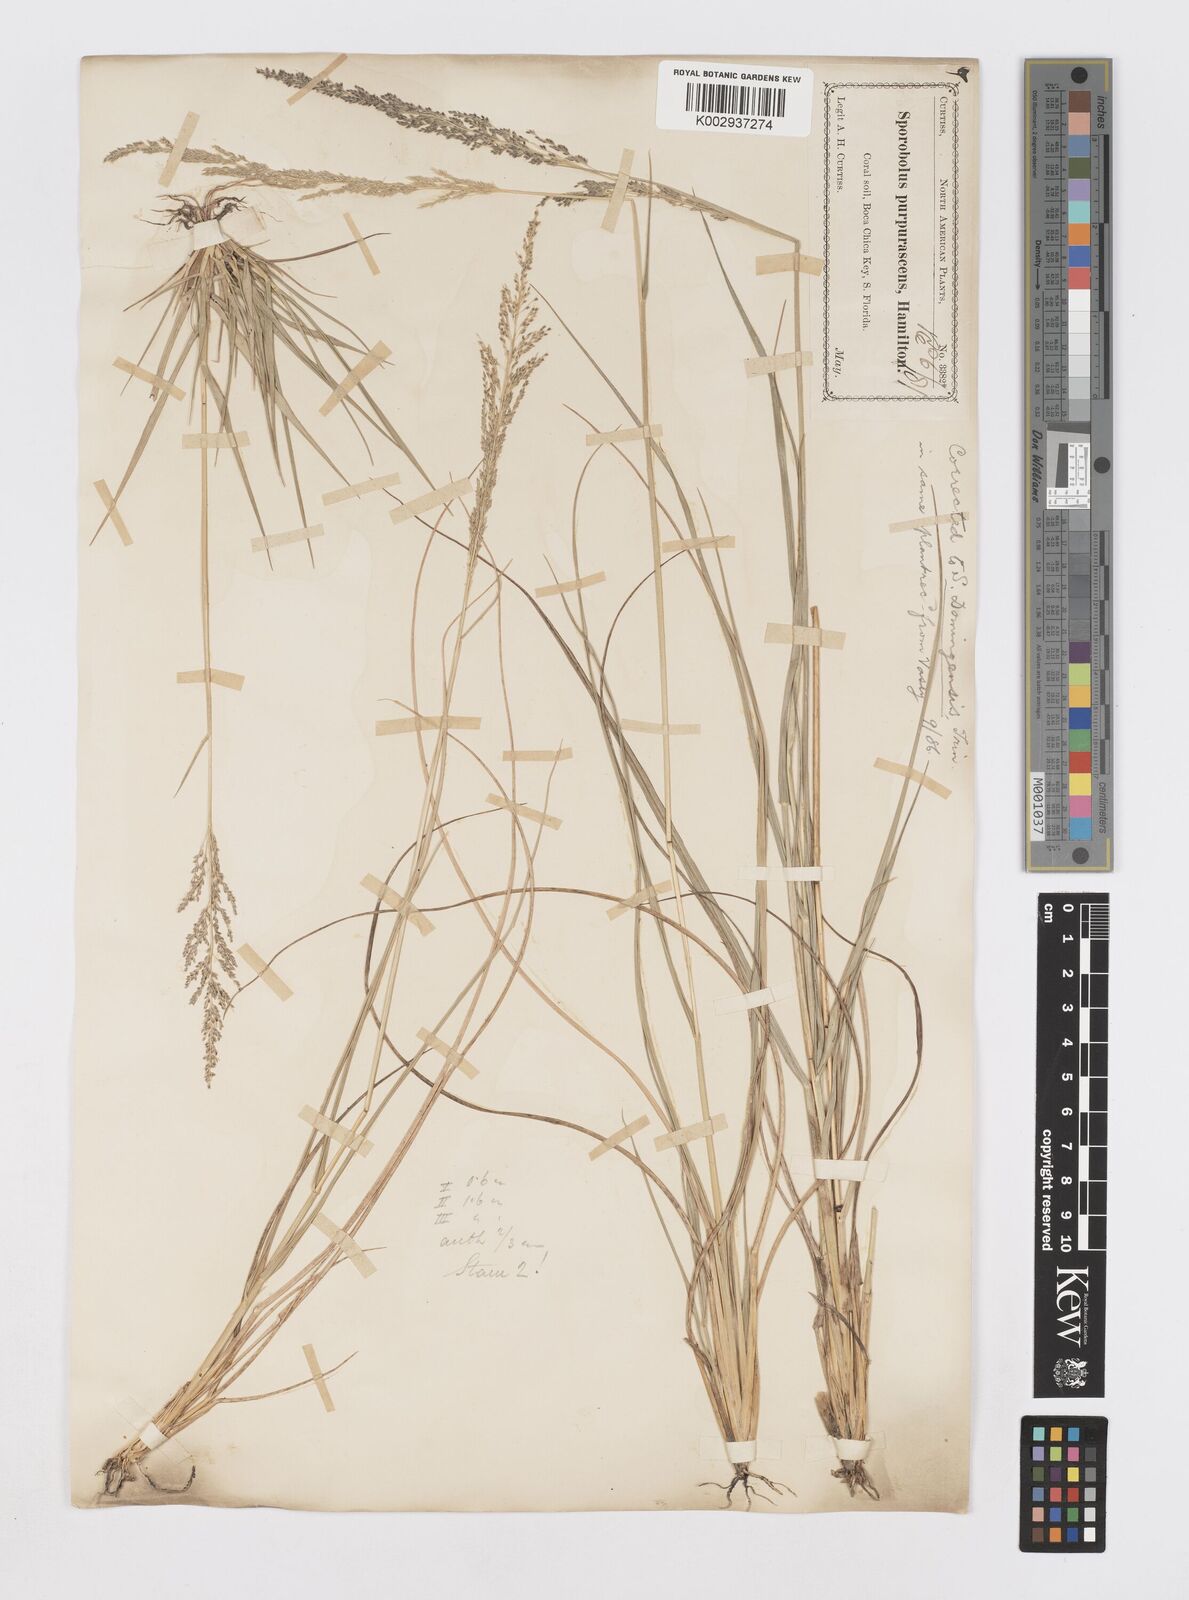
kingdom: Plantae
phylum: Tracheophyta
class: Liliopsida
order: Poales
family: Poaceae
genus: Sporobolus
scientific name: Sporobolus domingensis
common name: Coral dropseed
